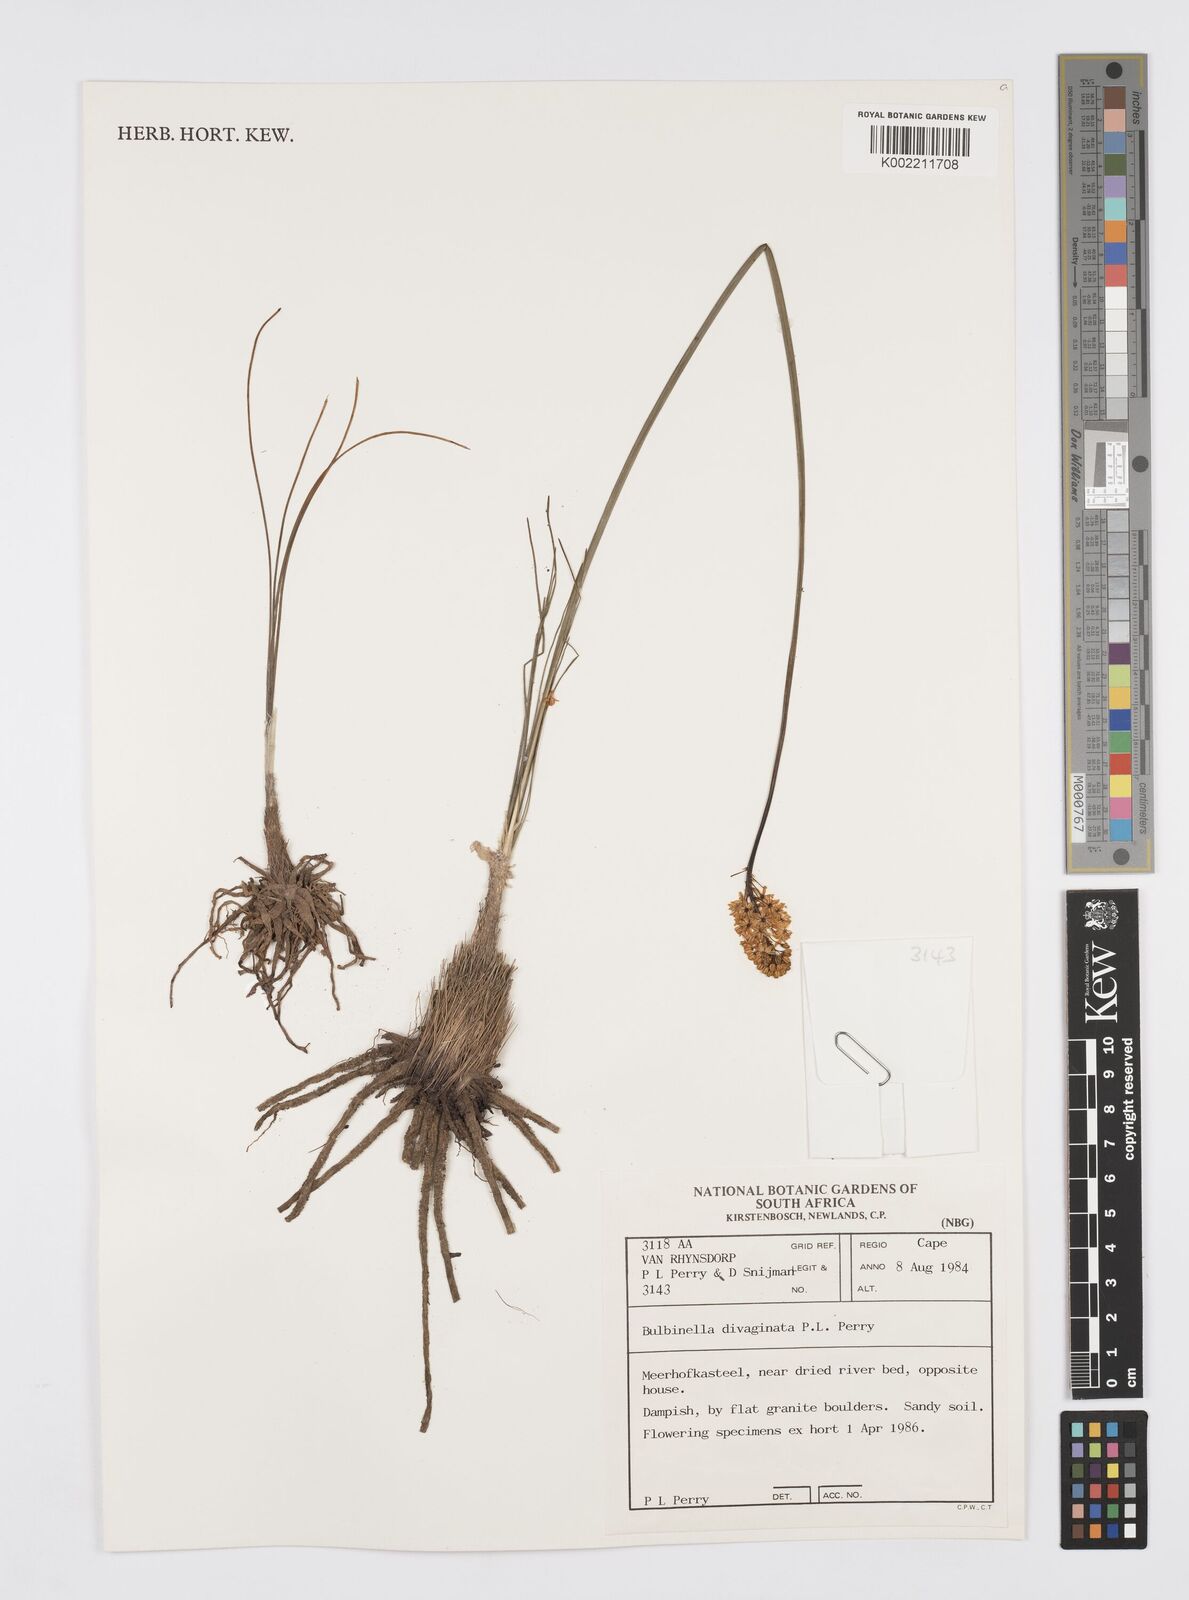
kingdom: Plantae
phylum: Tracheophyta
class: Liliopsida
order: Asparagales
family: Asphodelaceae
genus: Bulbinella
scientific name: Bulbinella divaginata
